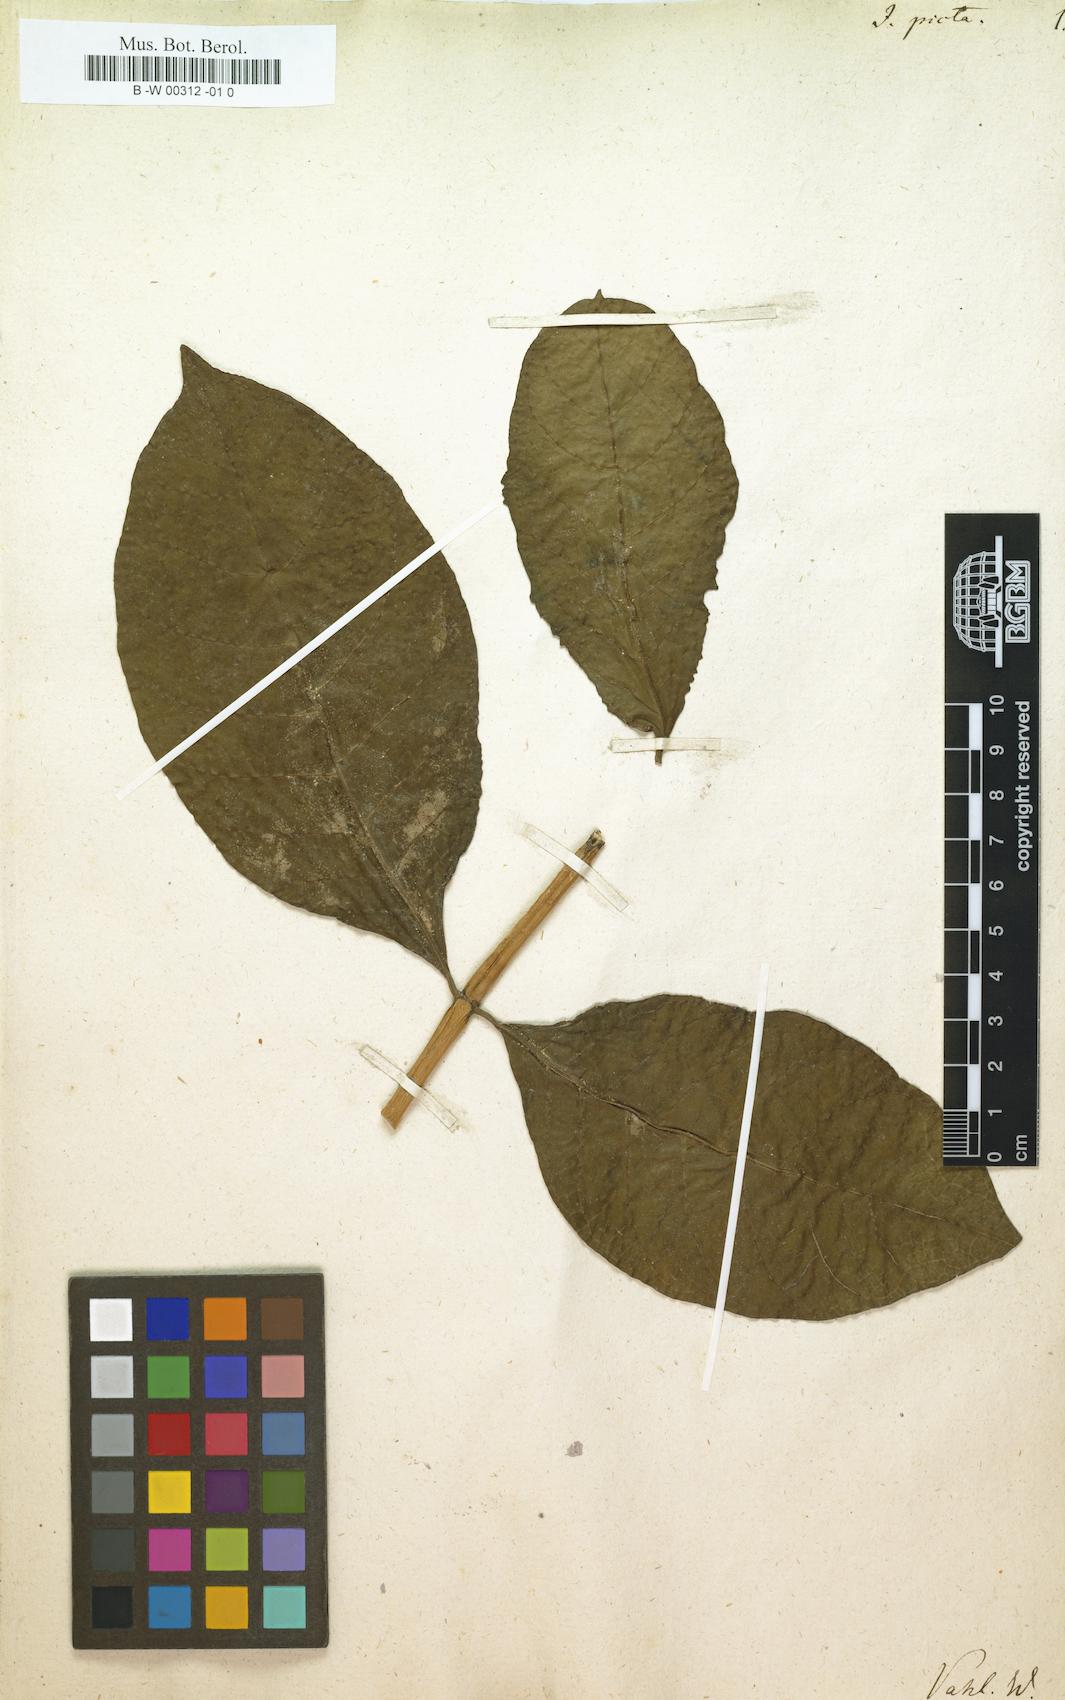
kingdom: Plantae
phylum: Tracheophyta
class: Magnoliopsida
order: Lamiales
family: Acanthaceae
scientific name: Acanthaceae
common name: Acanthaceae
